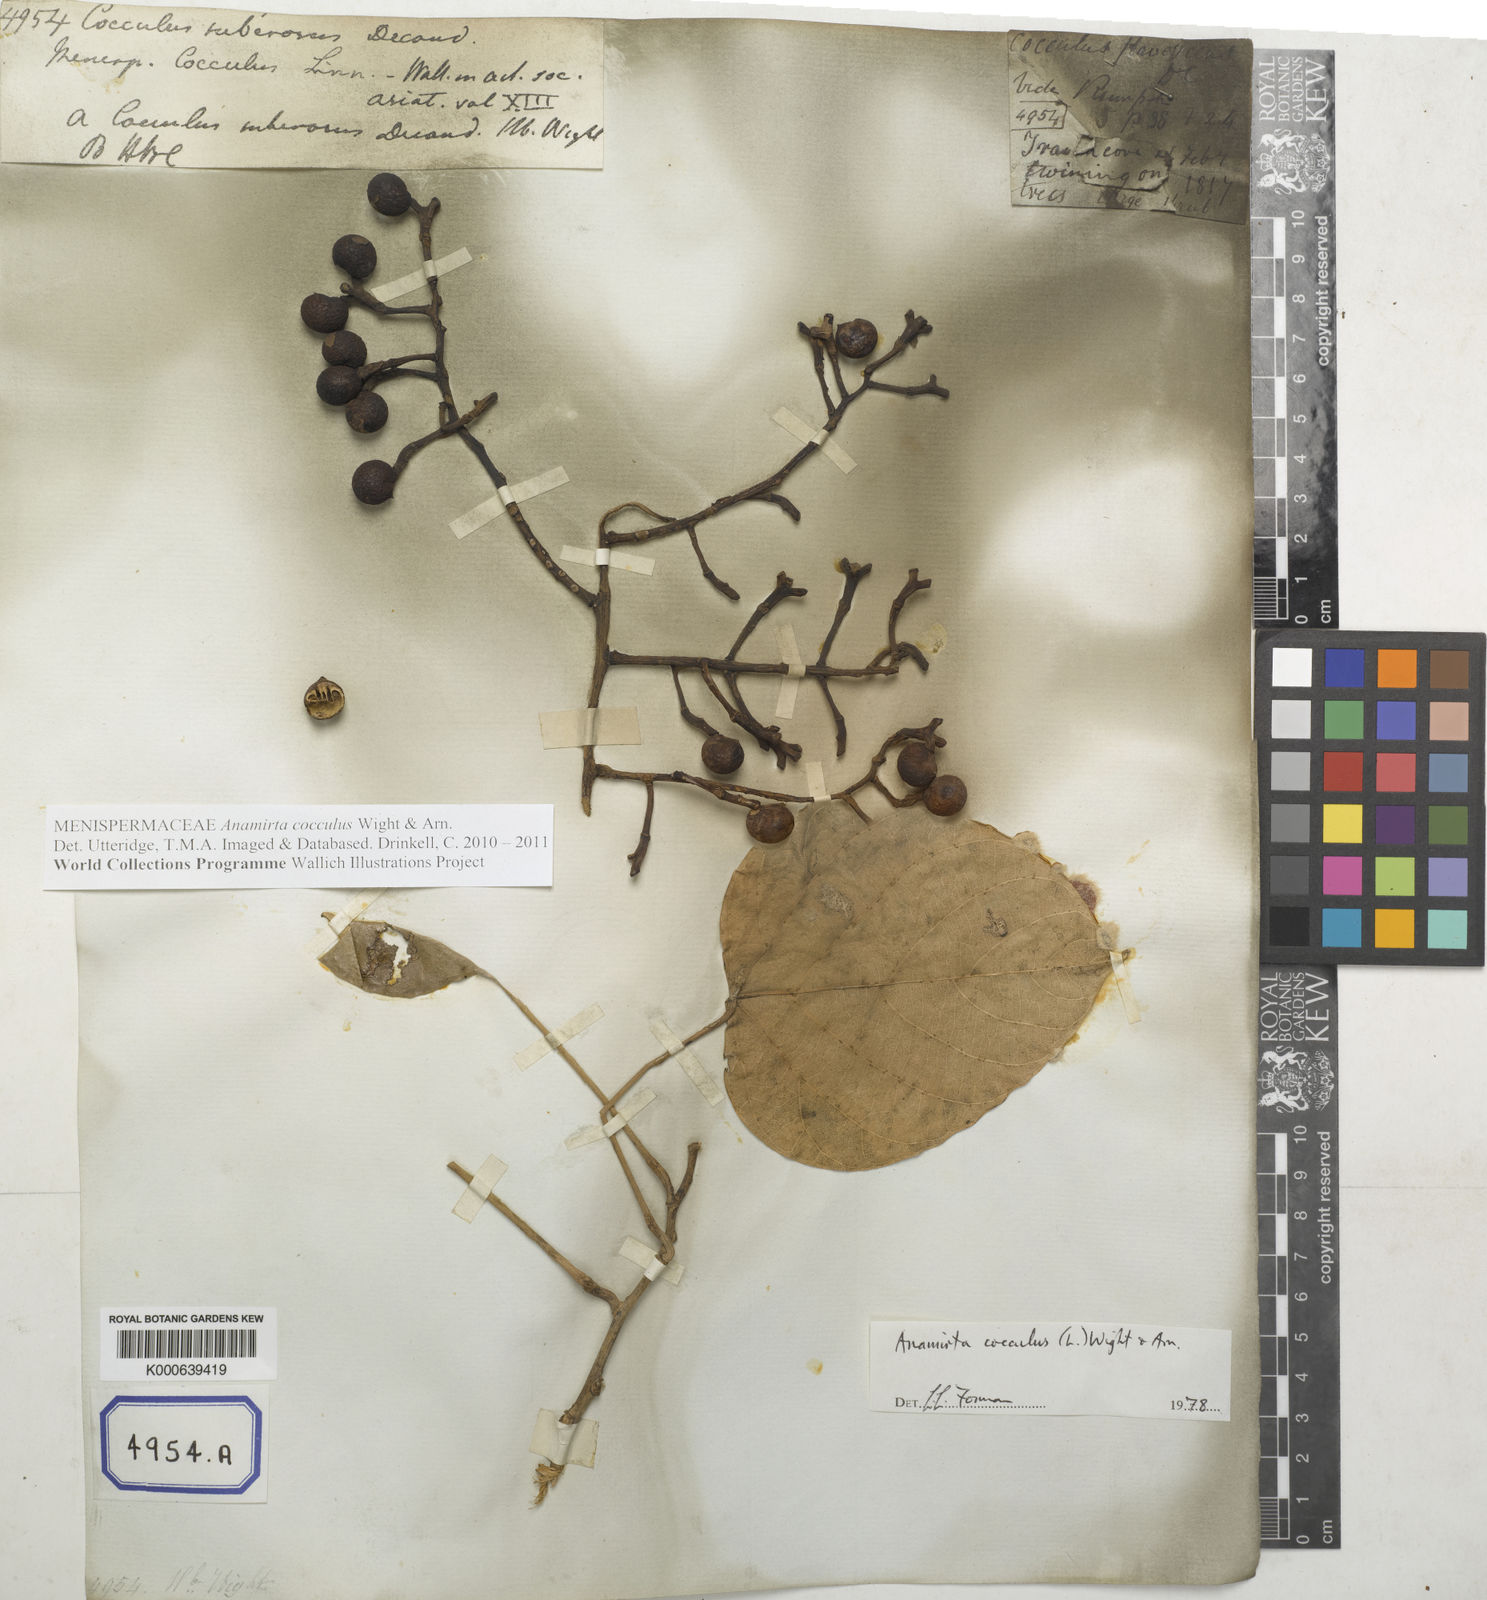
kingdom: Plantae
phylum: Tracheophyta
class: Magnoliopsida
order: Ranunculales
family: Menispermaceae
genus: Anamirta
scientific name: Anamirta cocculus
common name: Levantnut
